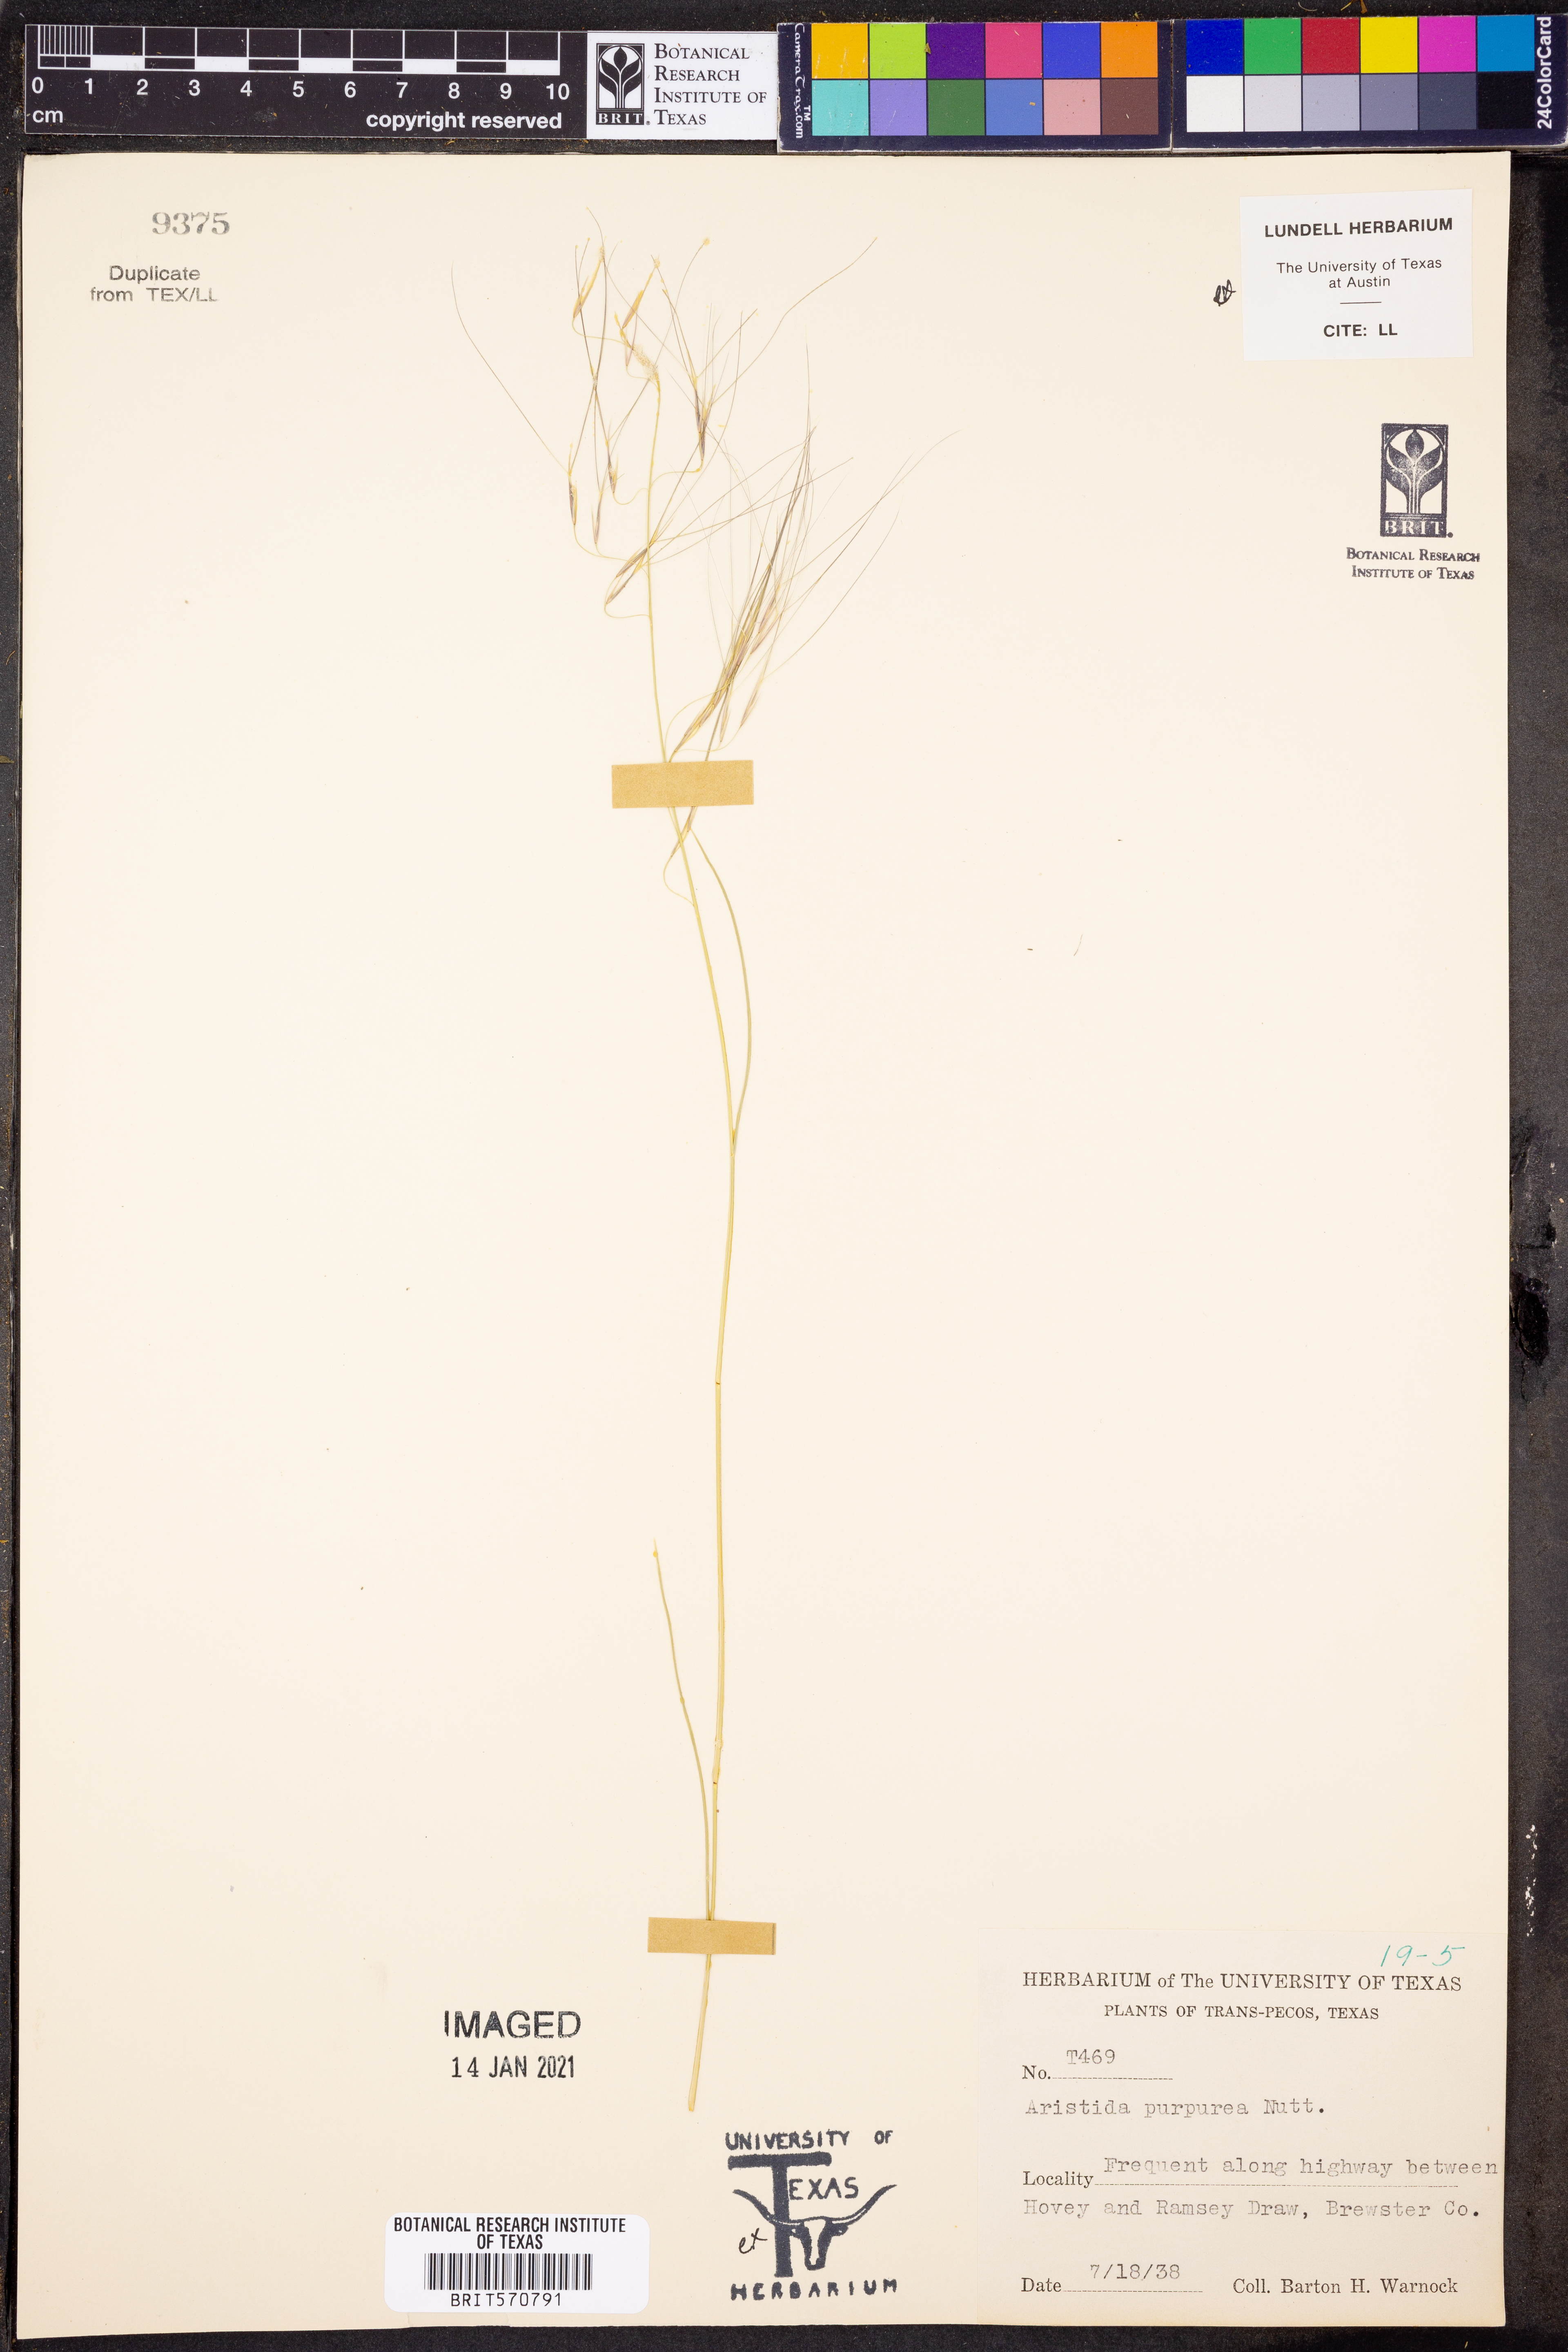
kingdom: Plantae
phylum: Tracheophyta
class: Liliopsida
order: Poales
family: Poaceae
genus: Aristida
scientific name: Aristida purpurea
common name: Purple threeawn
